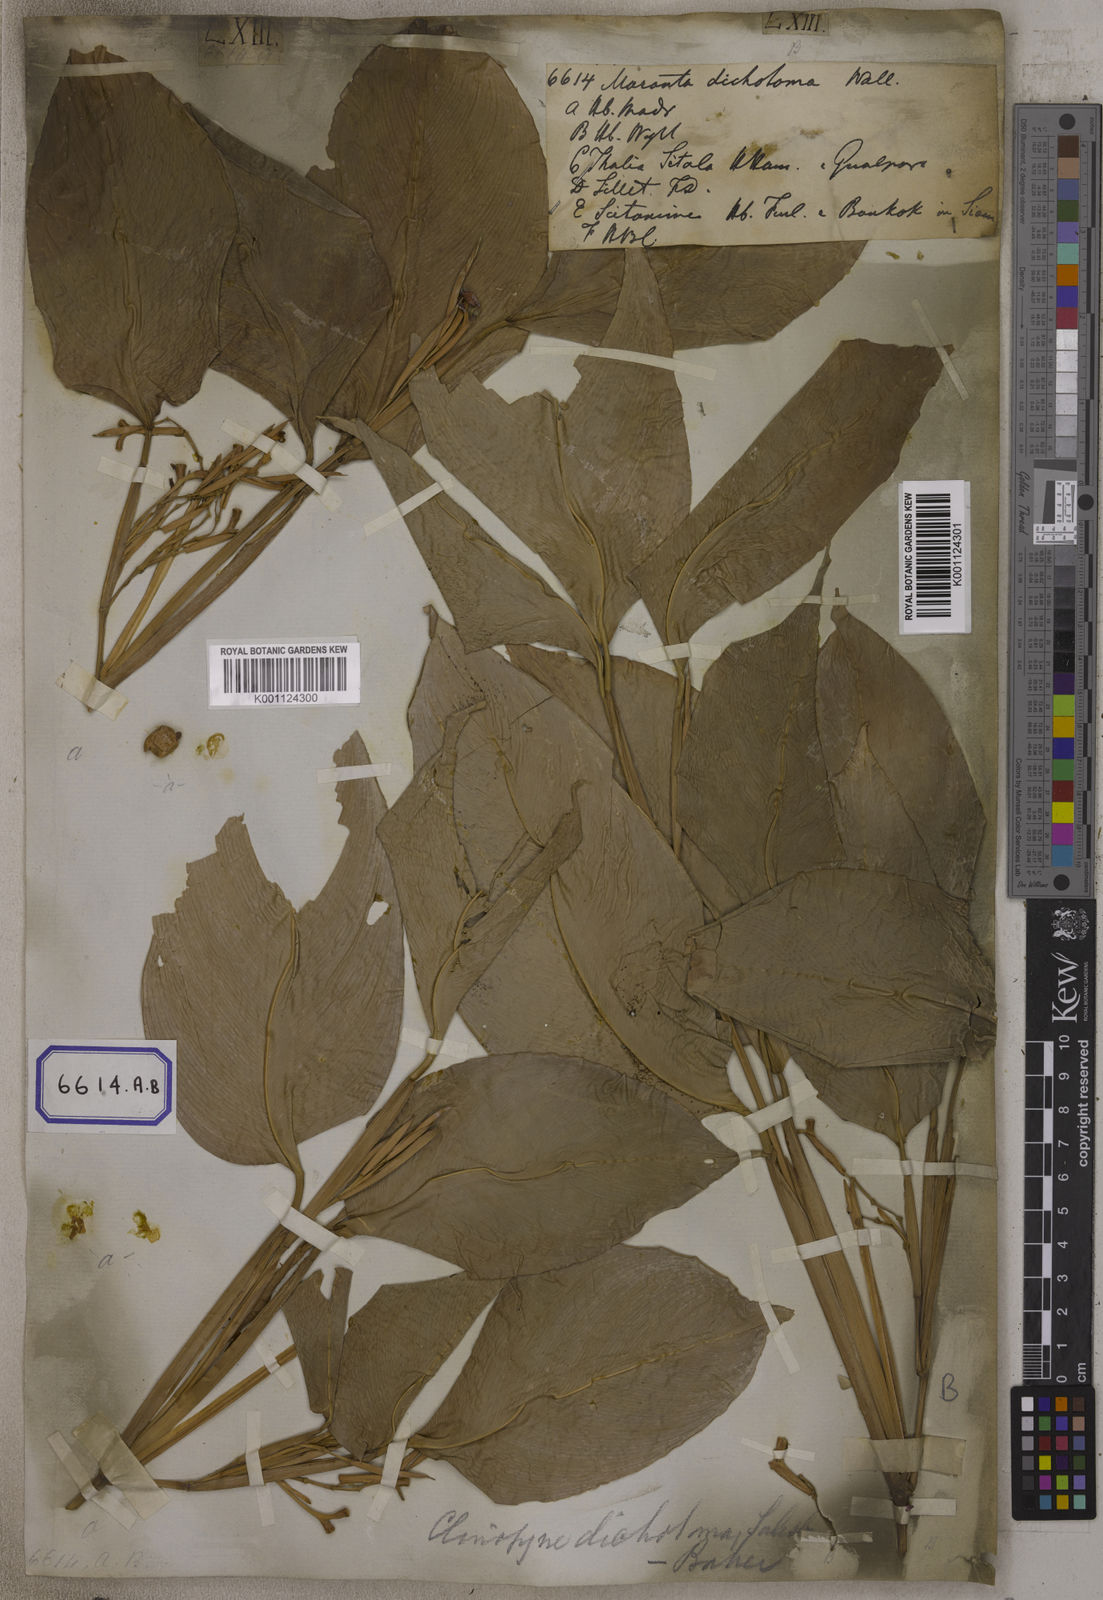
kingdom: Plantae
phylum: Tracheophyta
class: Liliopsida
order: Zingiberales
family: Marantaceae
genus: Maranta
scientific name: Maranta
